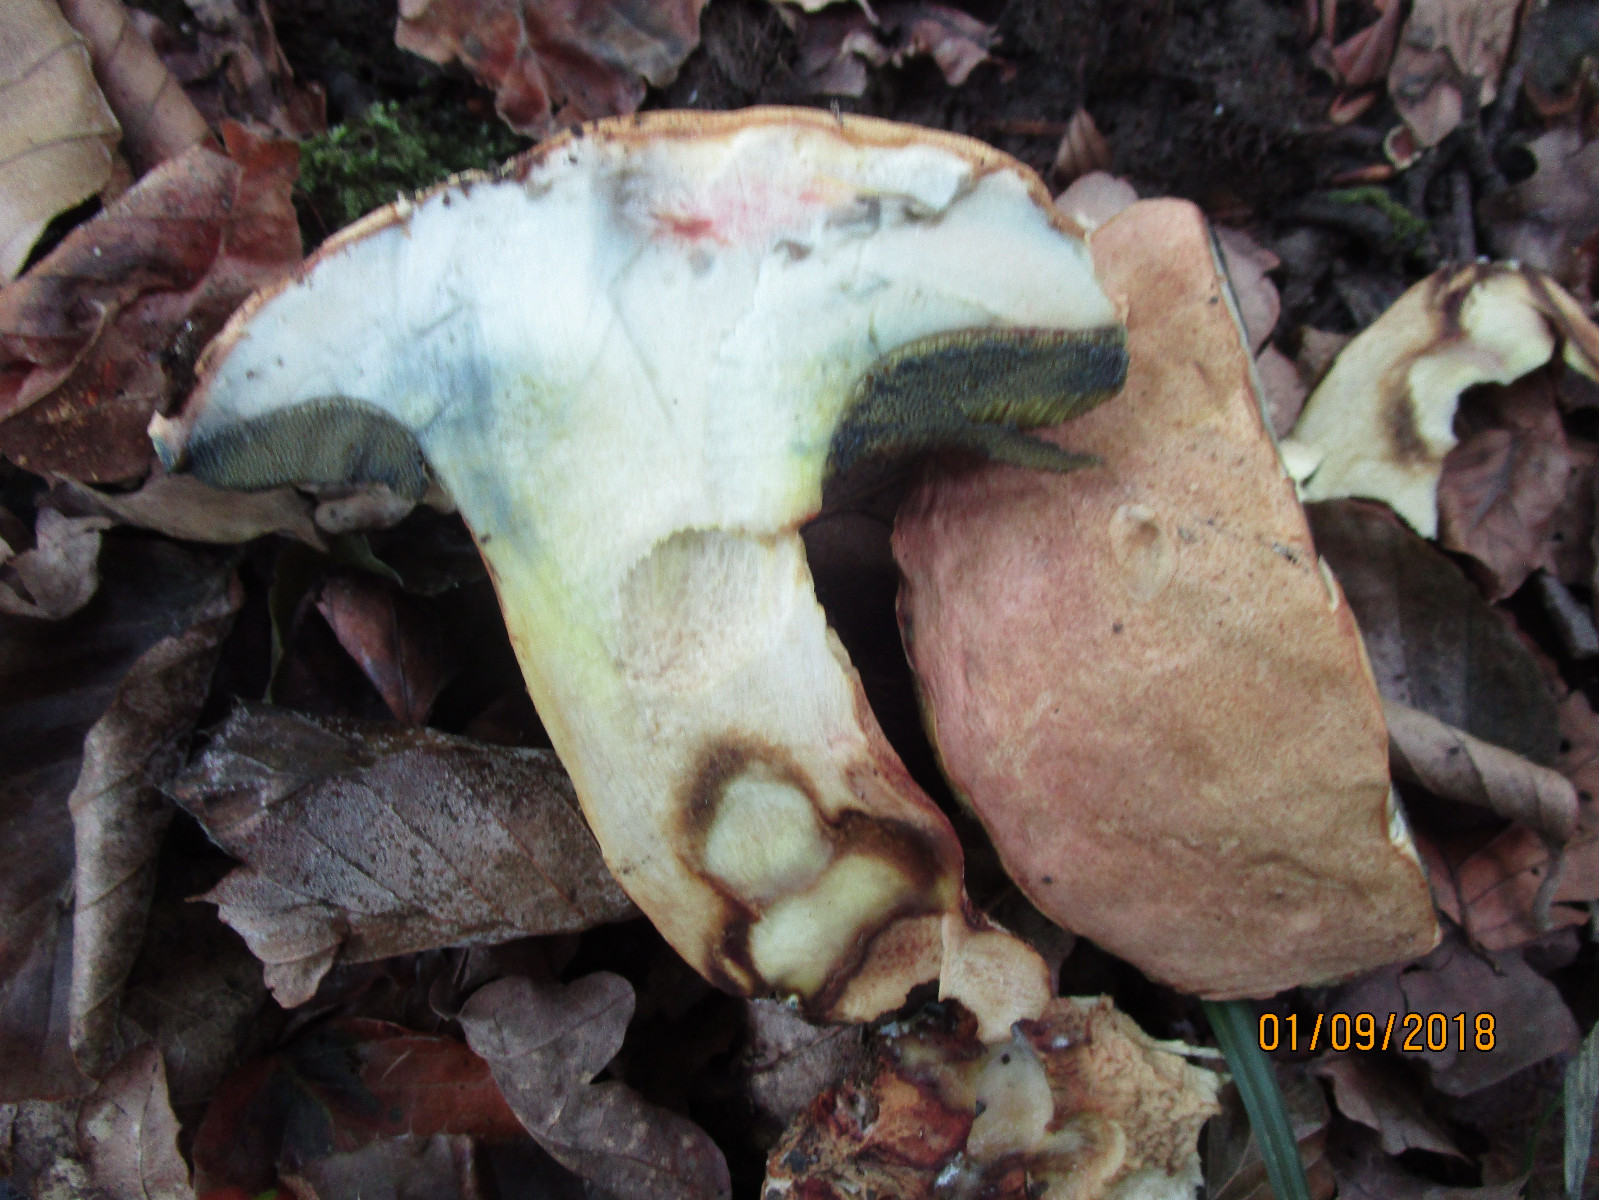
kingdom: Fungi
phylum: Basidiomycota
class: Agaricomycetes
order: Boletales
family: Boletaceae
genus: Butyriboletus
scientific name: Butyriboletus fuscoroseus
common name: brunrosa rørhat
